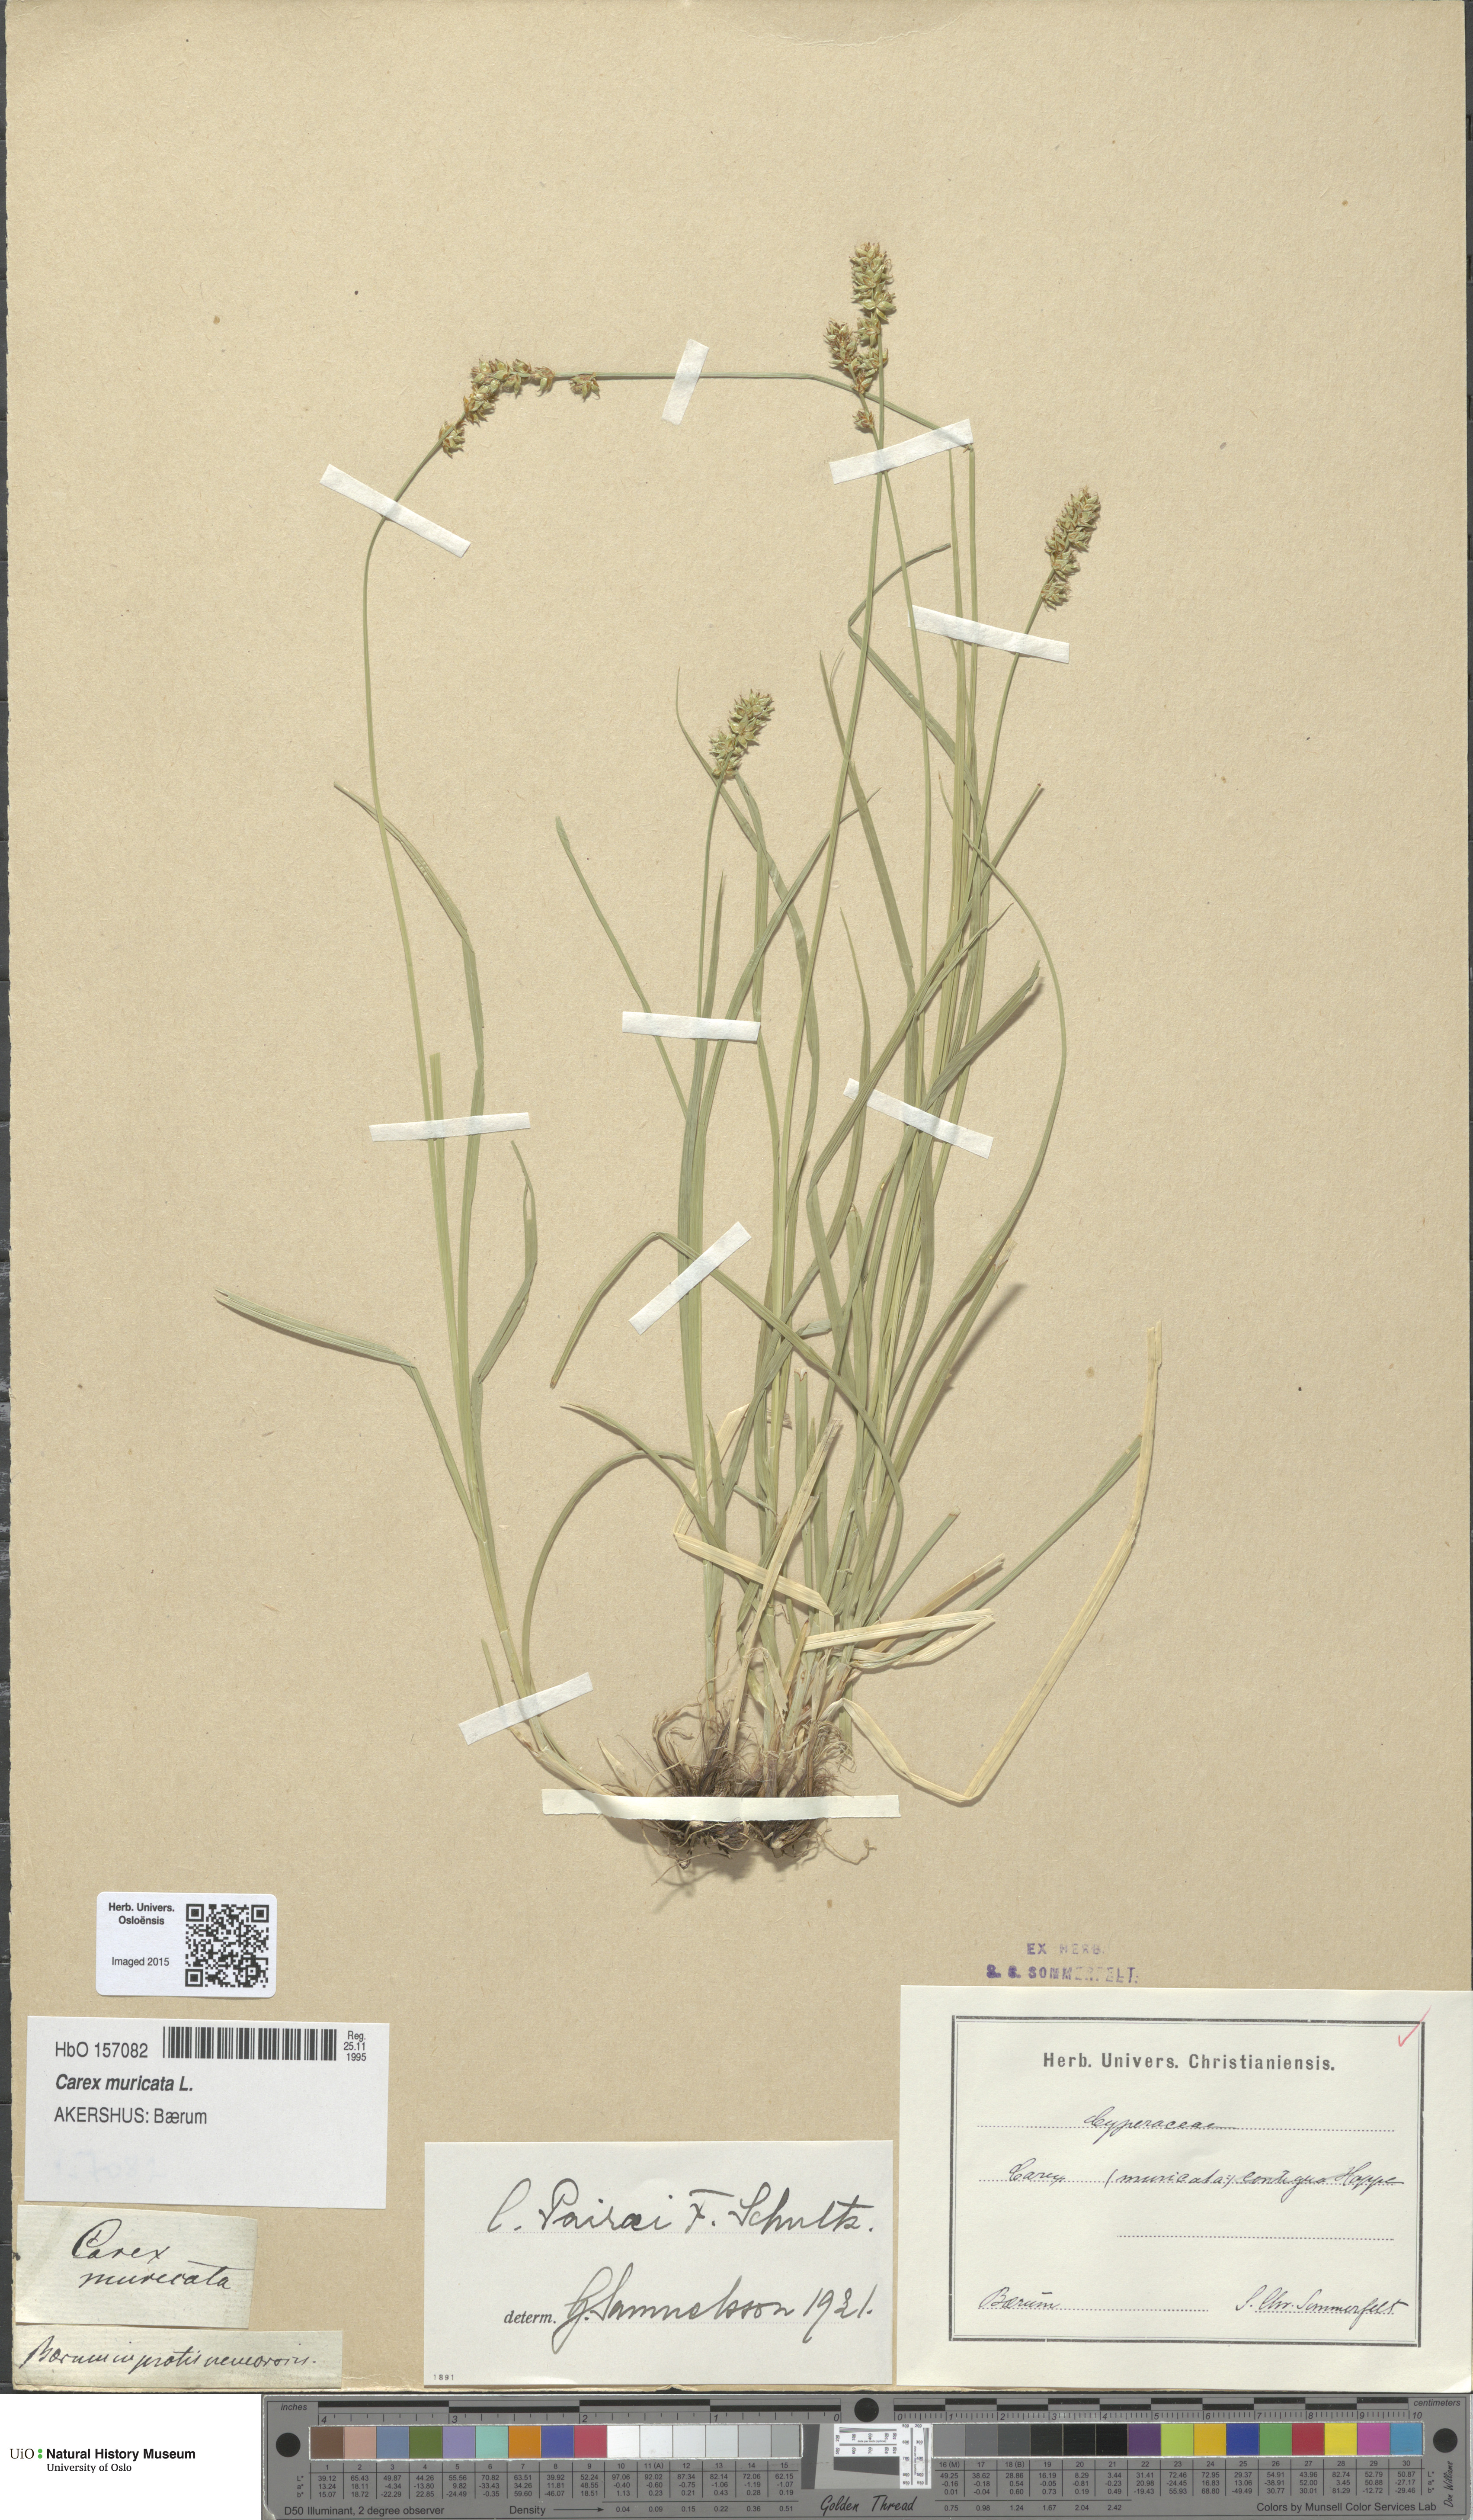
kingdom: Plantae
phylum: Tracheophyta
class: Liliopsida
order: Poales
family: Cyperaceae
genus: Carex
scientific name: Carex pairae
